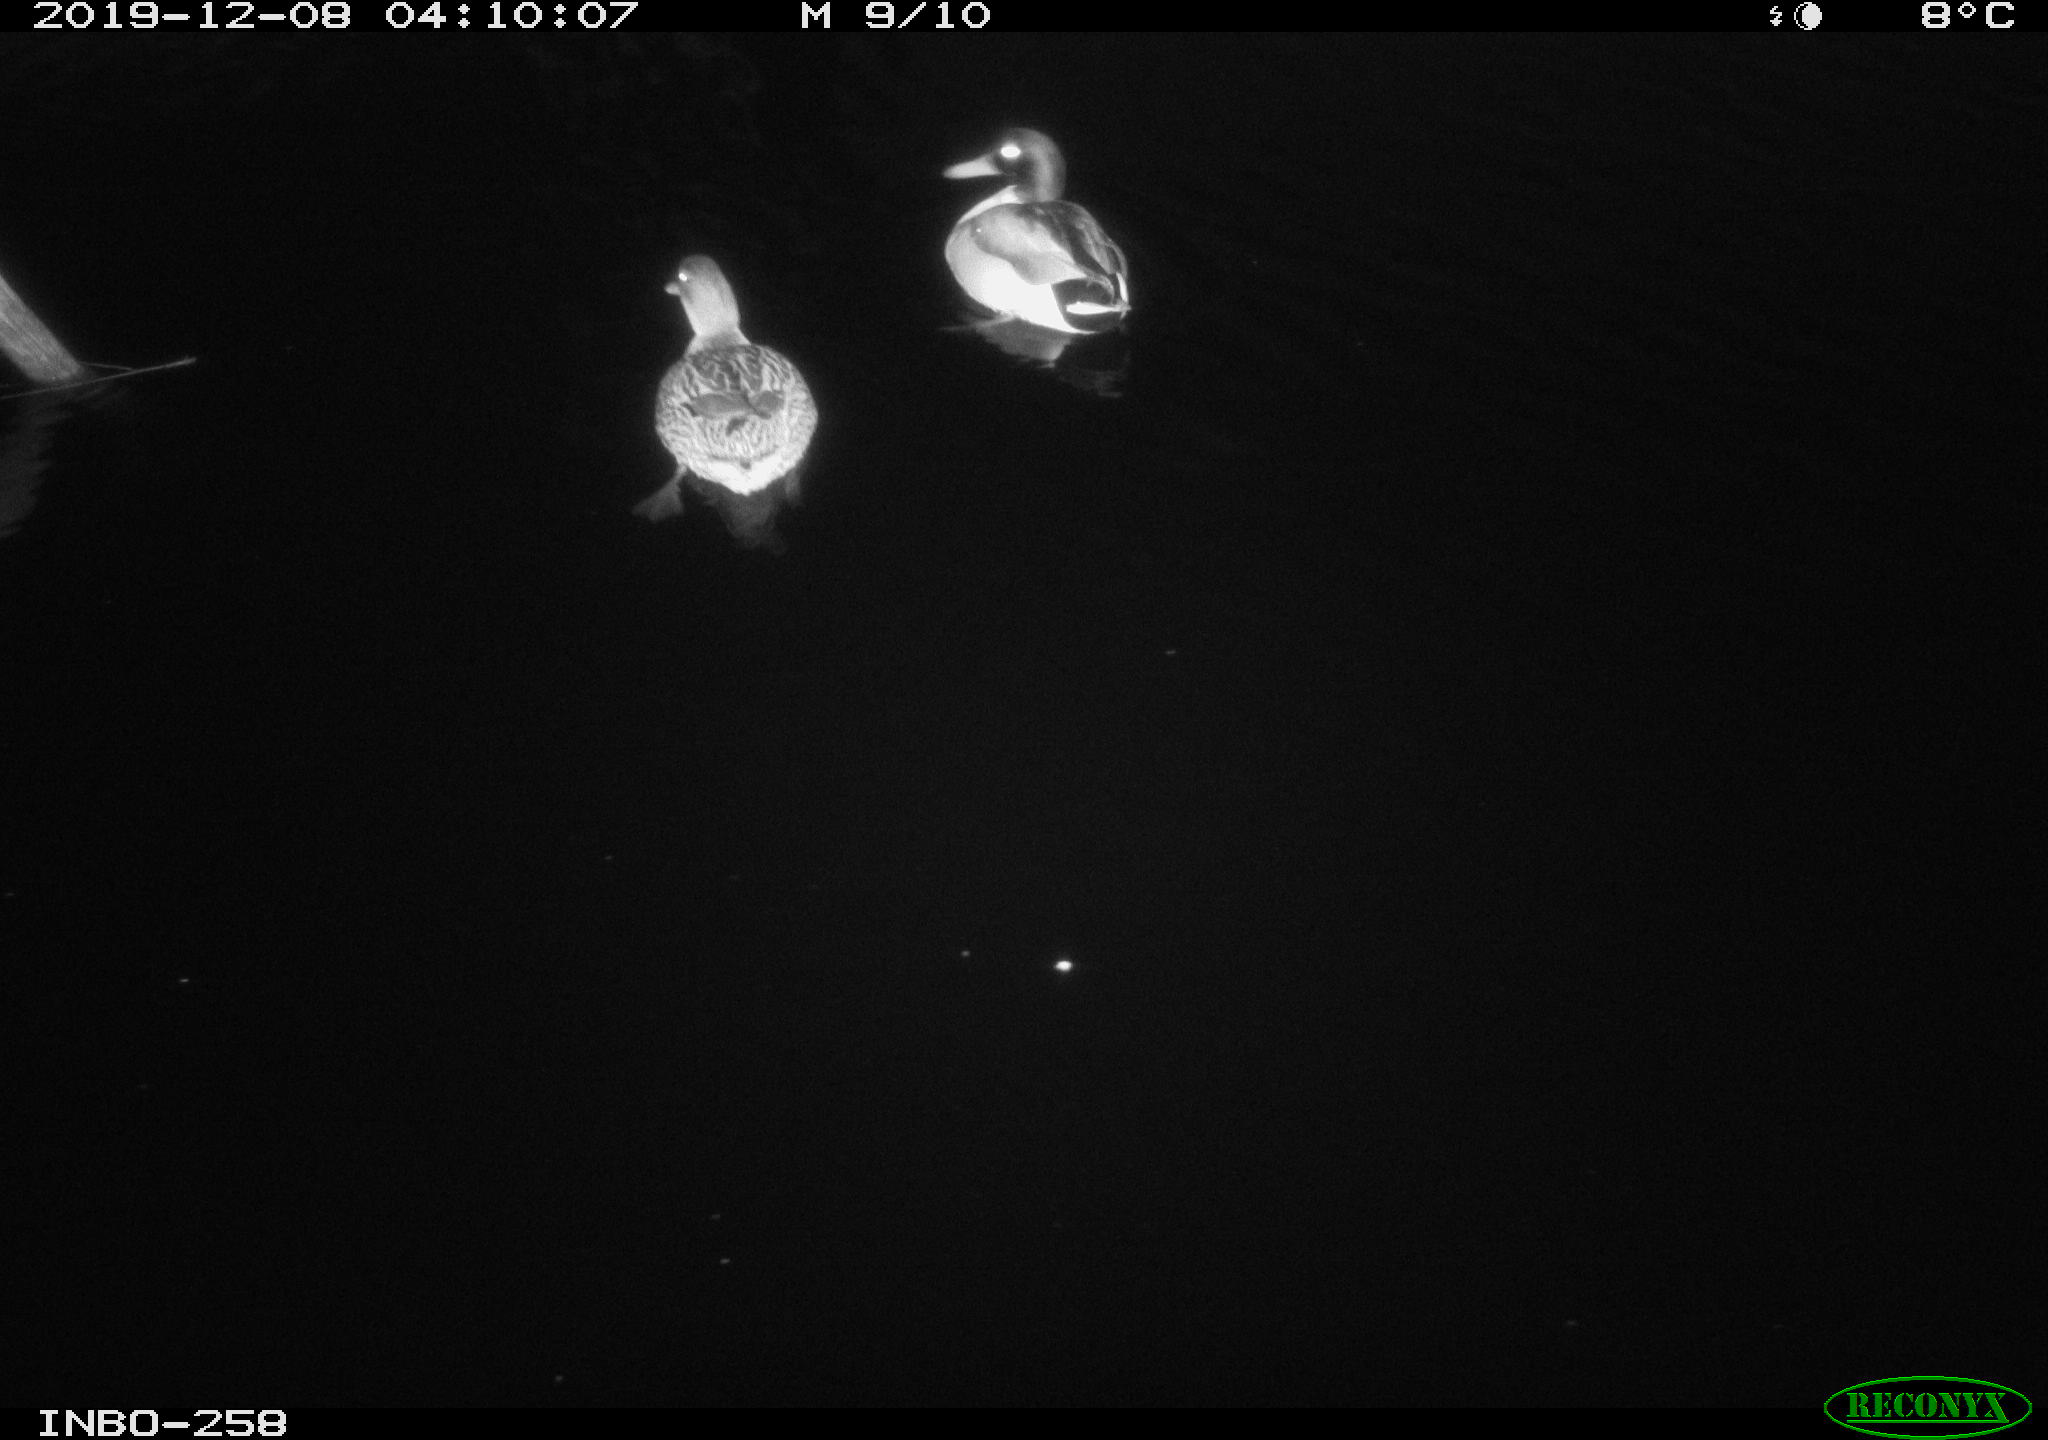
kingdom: Animalia
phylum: Chordata
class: Aves
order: Anseriformes
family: Anatidae
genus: Anas
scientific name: Anas platyrhynchos
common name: Mallard
